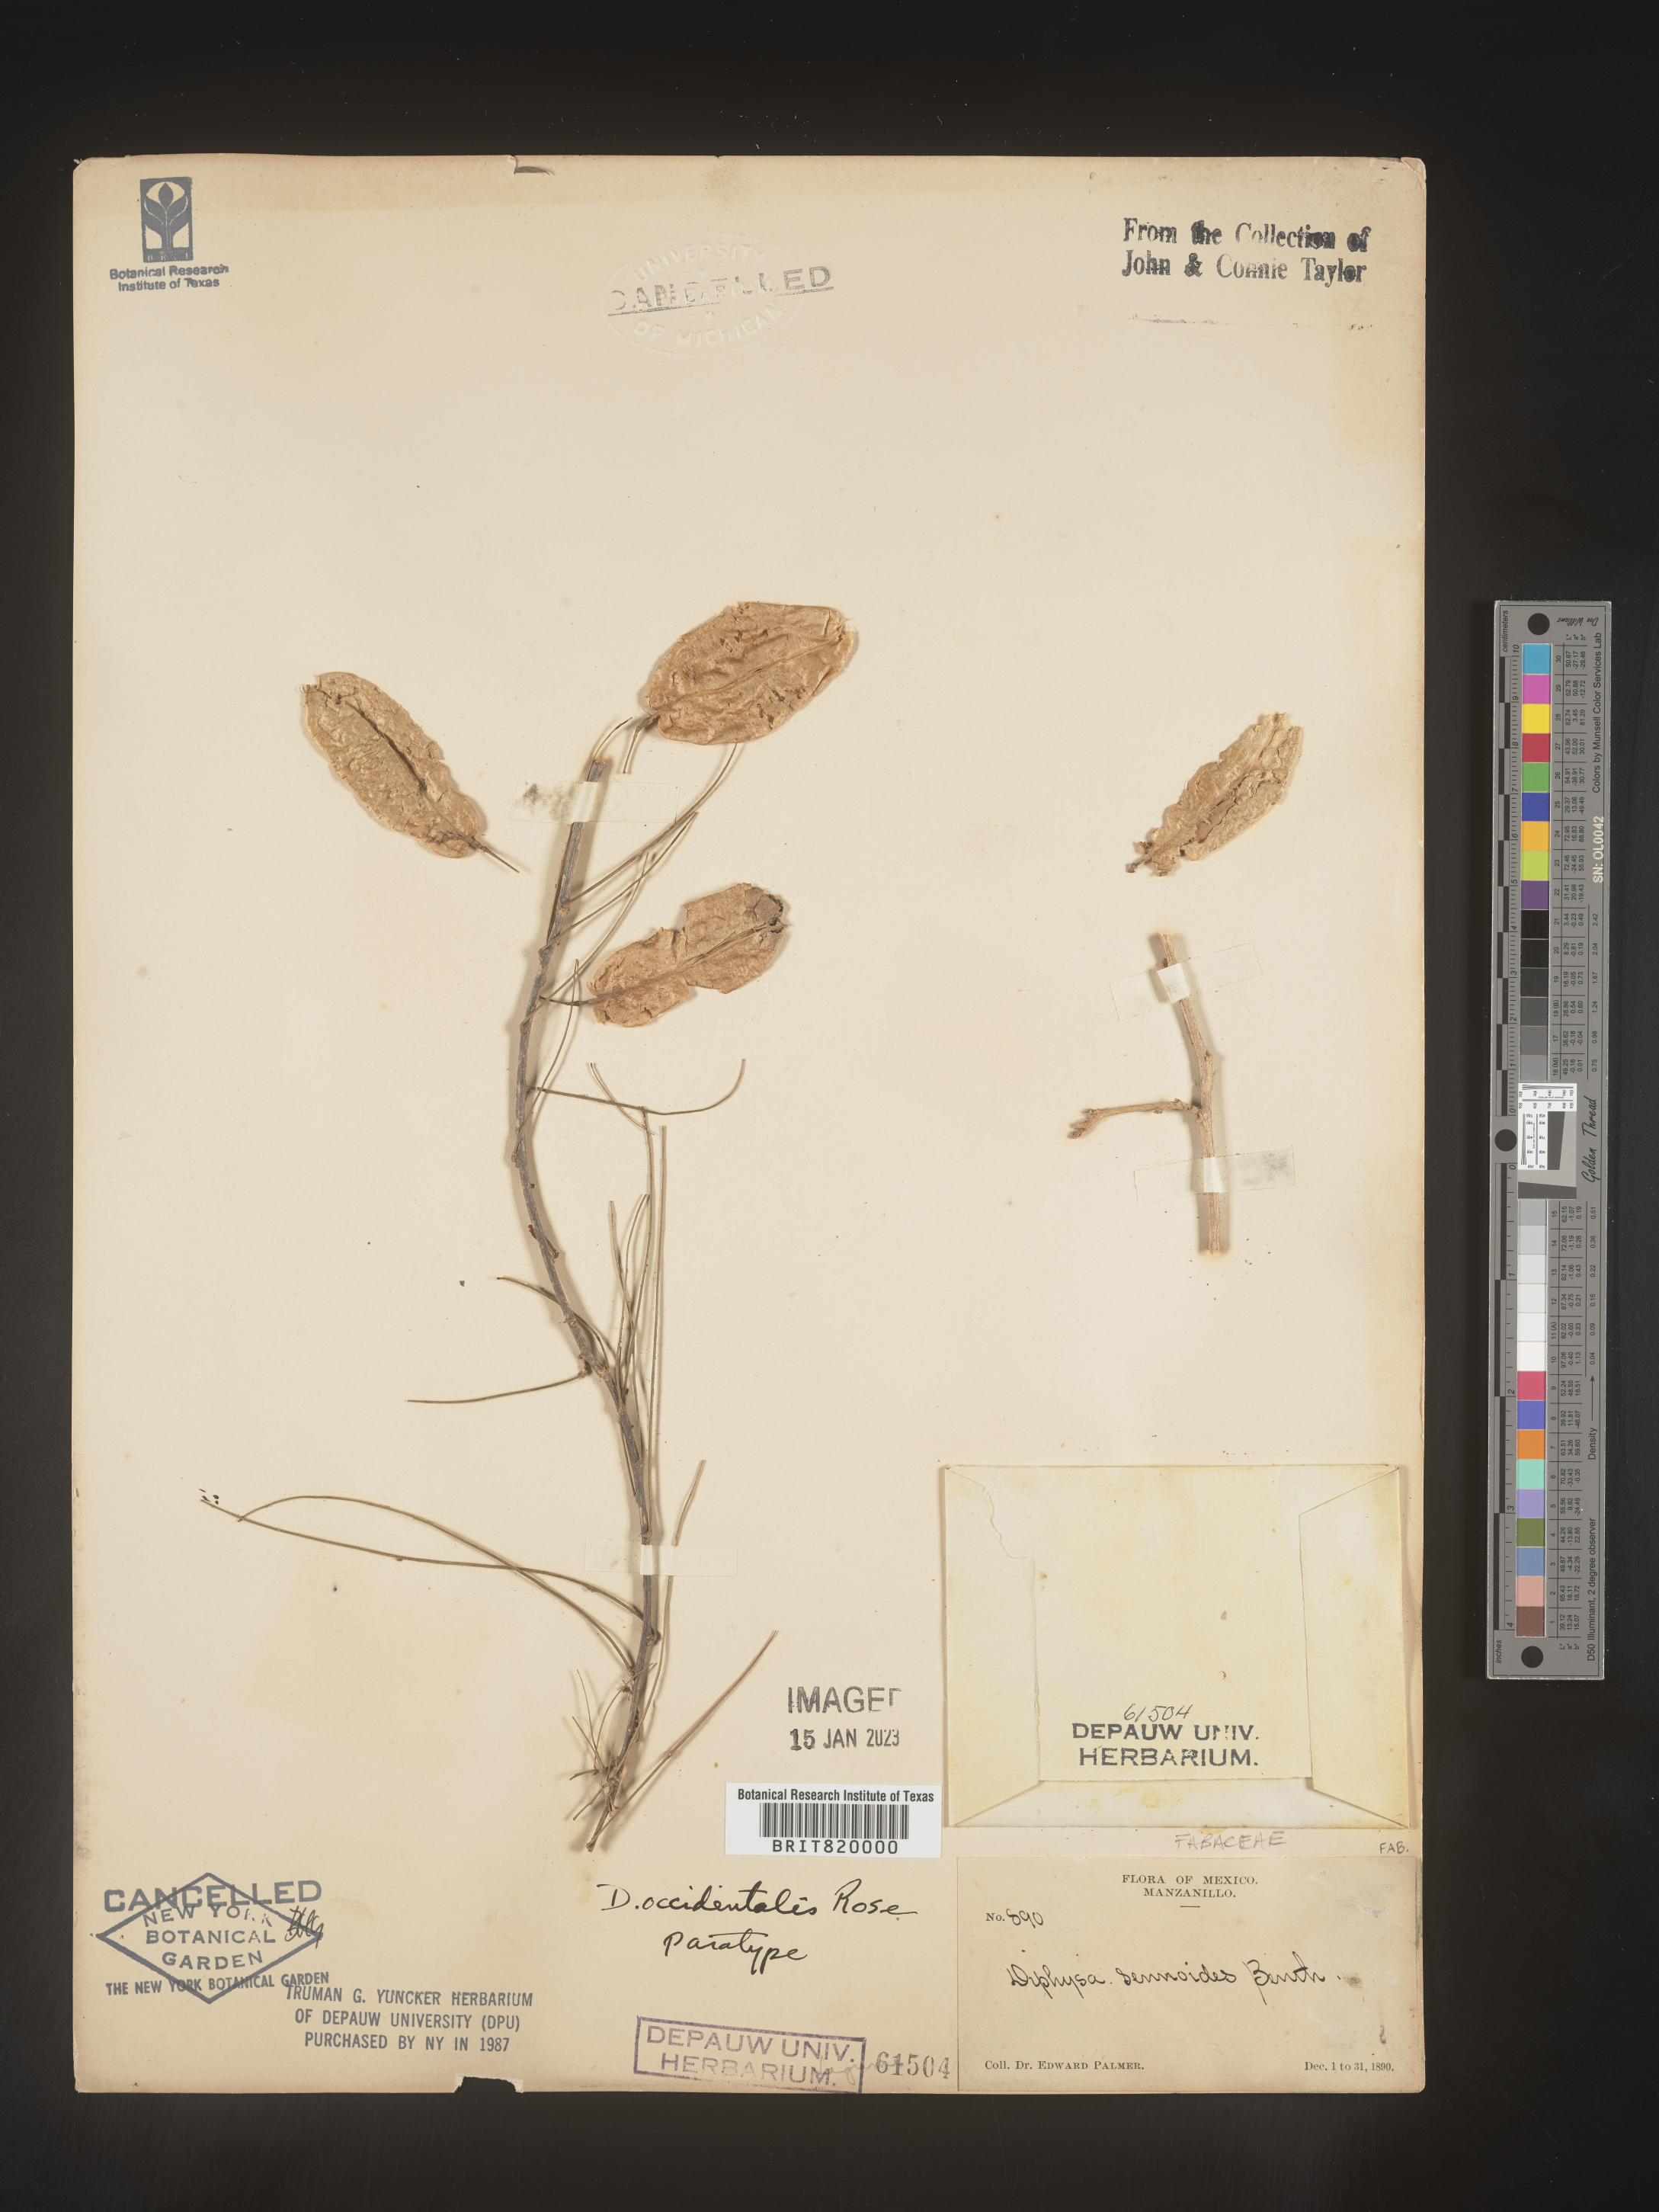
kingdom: Plantae
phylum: Tracheophyta
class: Magnoliopsida
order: Fabales
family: Fabaceae
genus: Diphysa
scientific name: Diphysa
